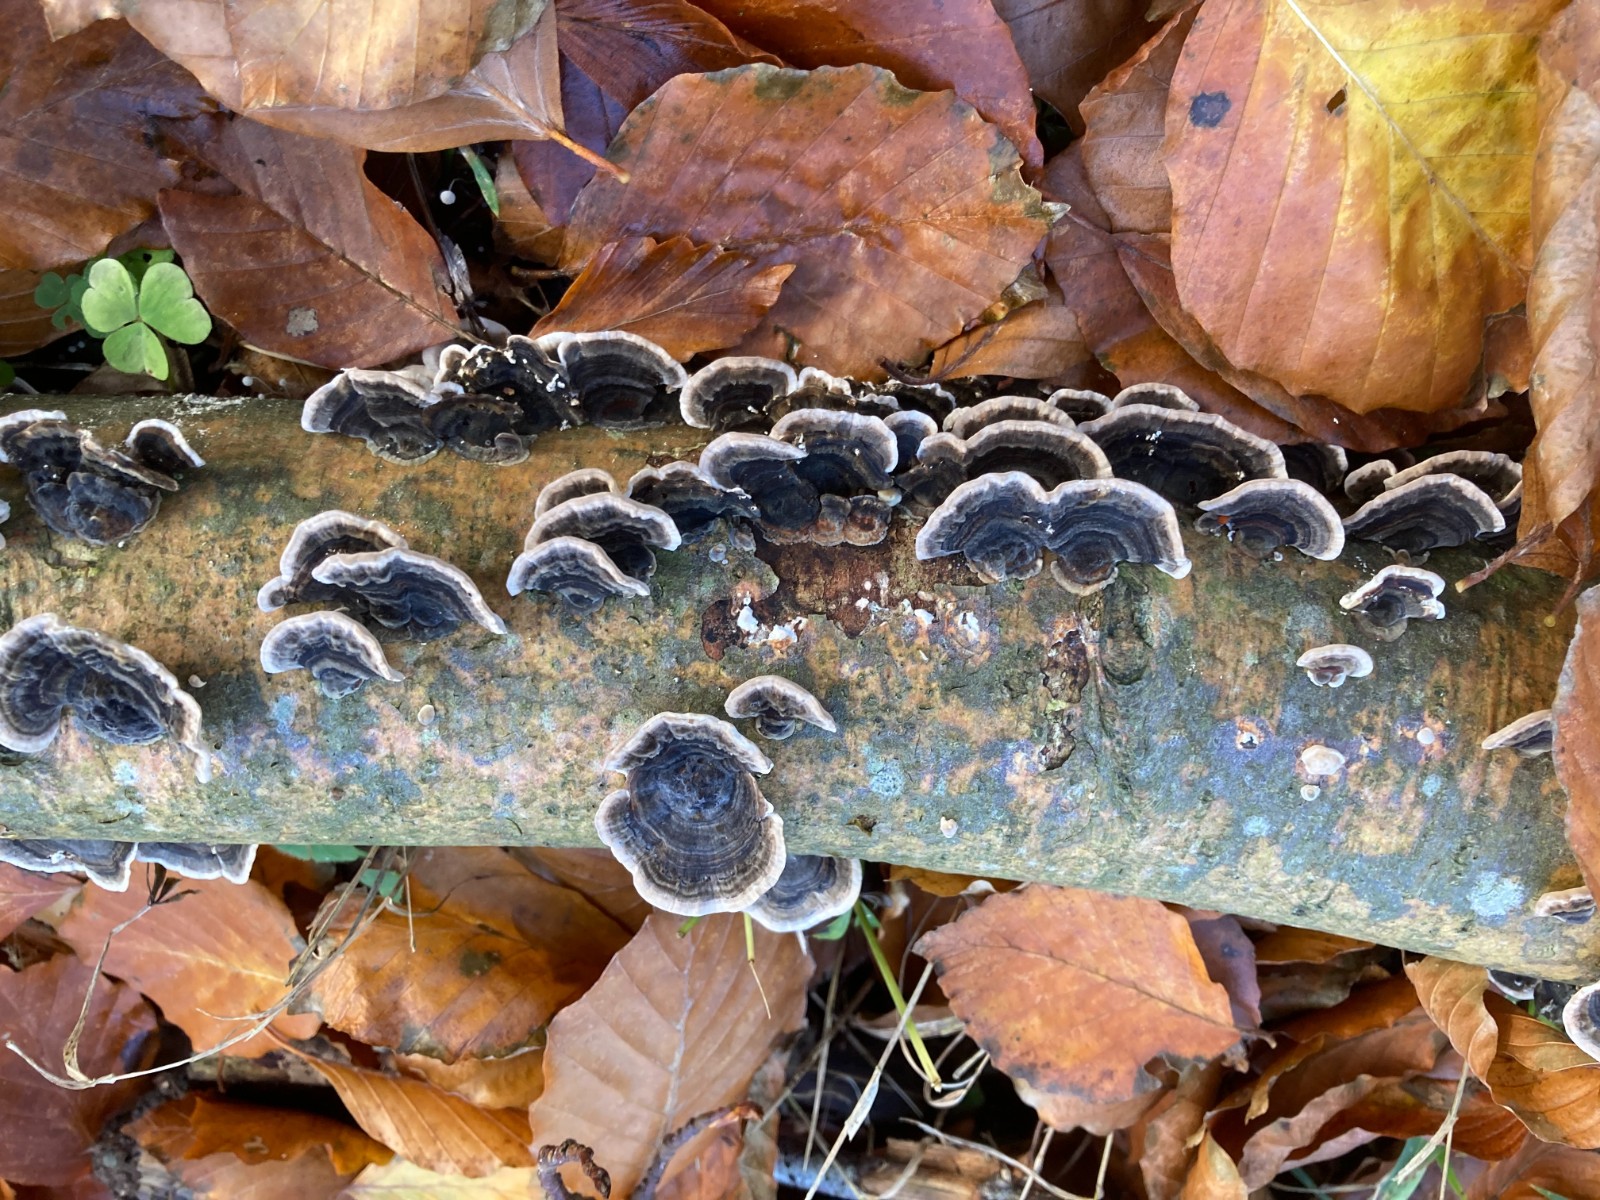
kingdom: Fungi
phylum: Basidiomycota
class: Agaricomycetes
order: Polyporales
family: Polyporaceae
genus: Trametes
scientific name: Trametes versicolor
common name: broget læderporesvamp
